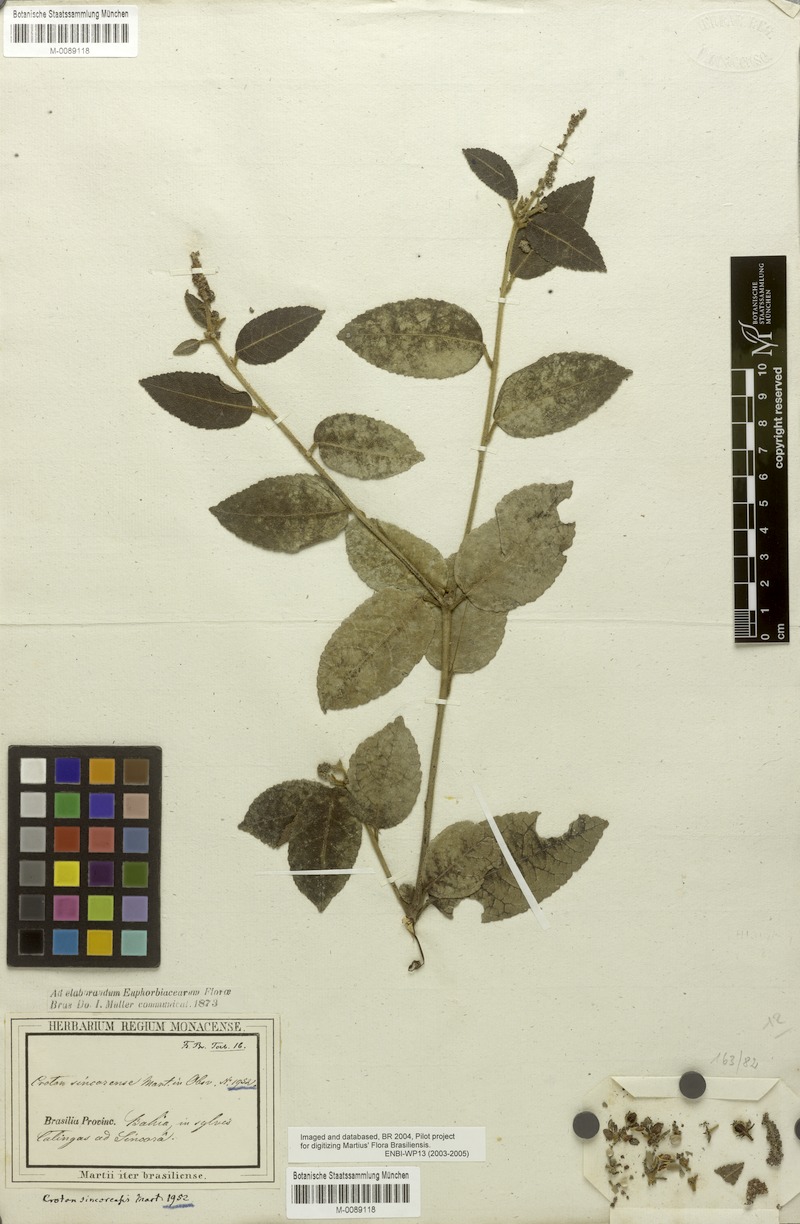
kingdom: Plantae
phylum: Tracheophyta
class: Magnoliopsida
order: Malpighiales
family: Euphorbiaceae
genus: Croton
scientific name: Croton sincorensis
